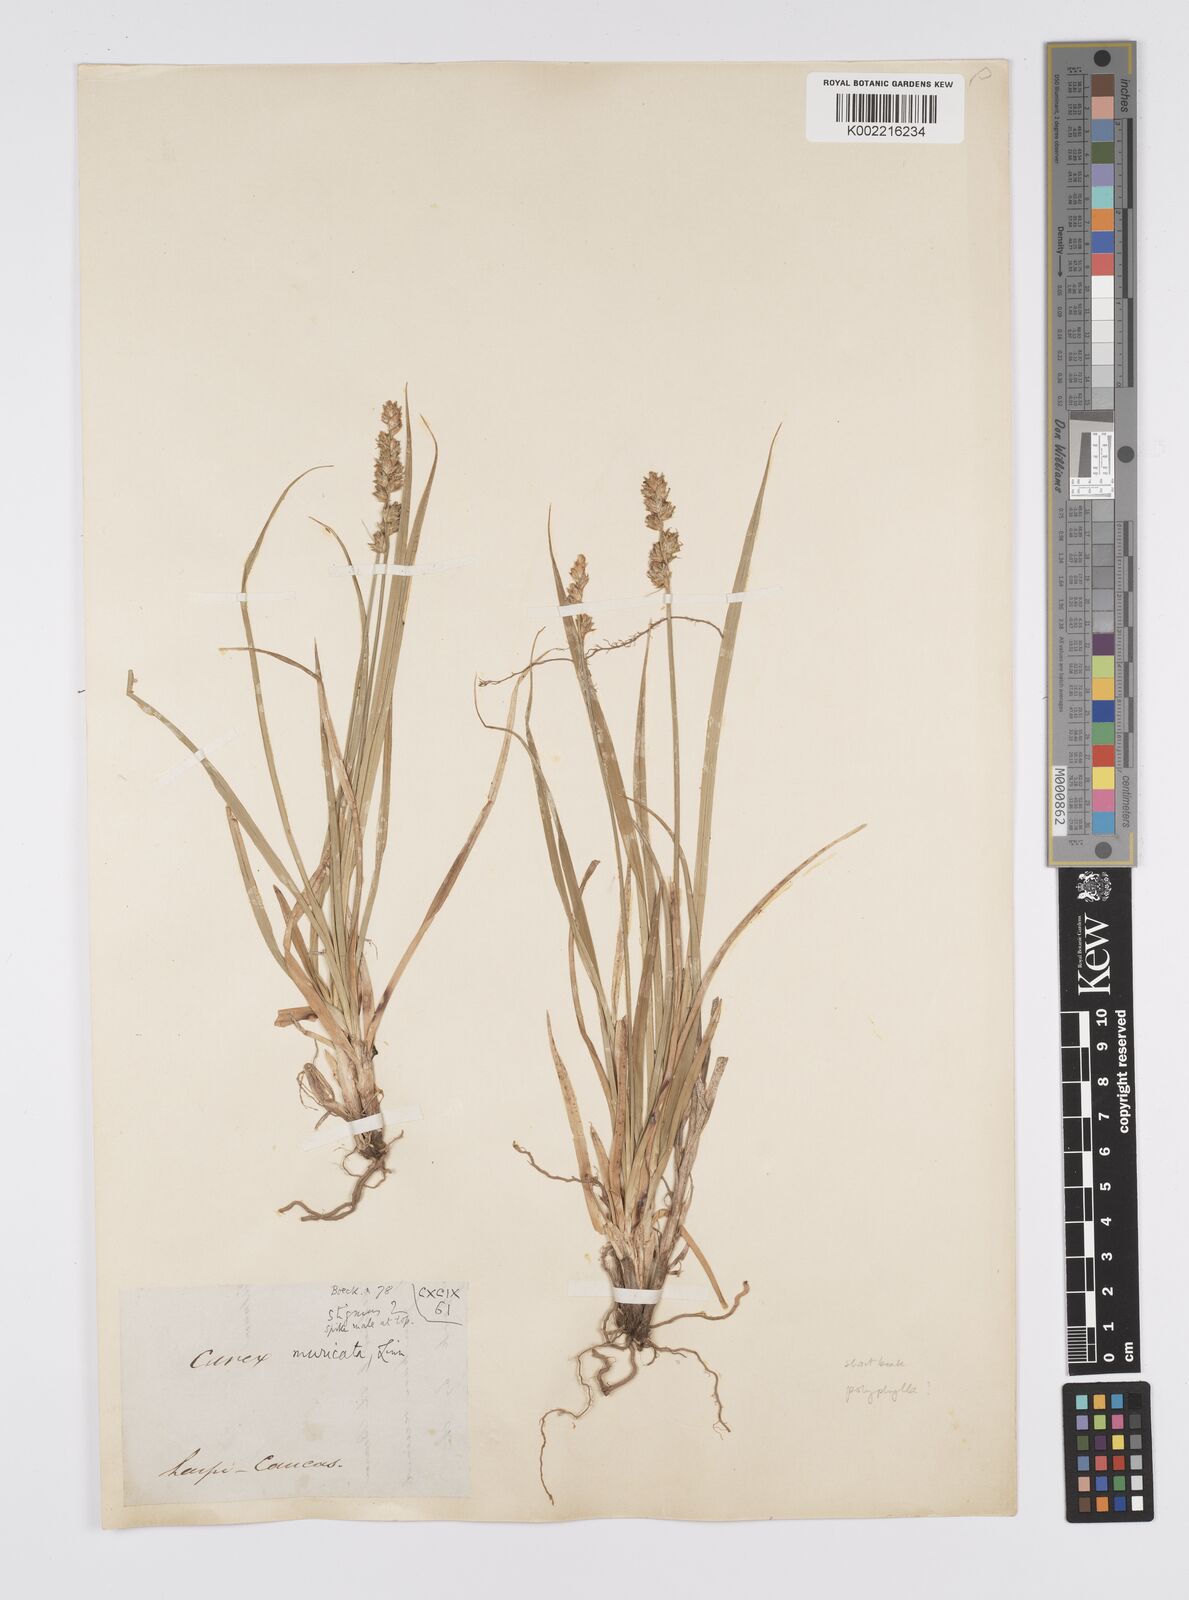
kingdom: Plantae
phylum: Tracheophyta
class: Liliopsida
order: Poales
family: Cyperaceae
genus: Carex
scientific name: Carex spicata
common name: Spiked sedge
